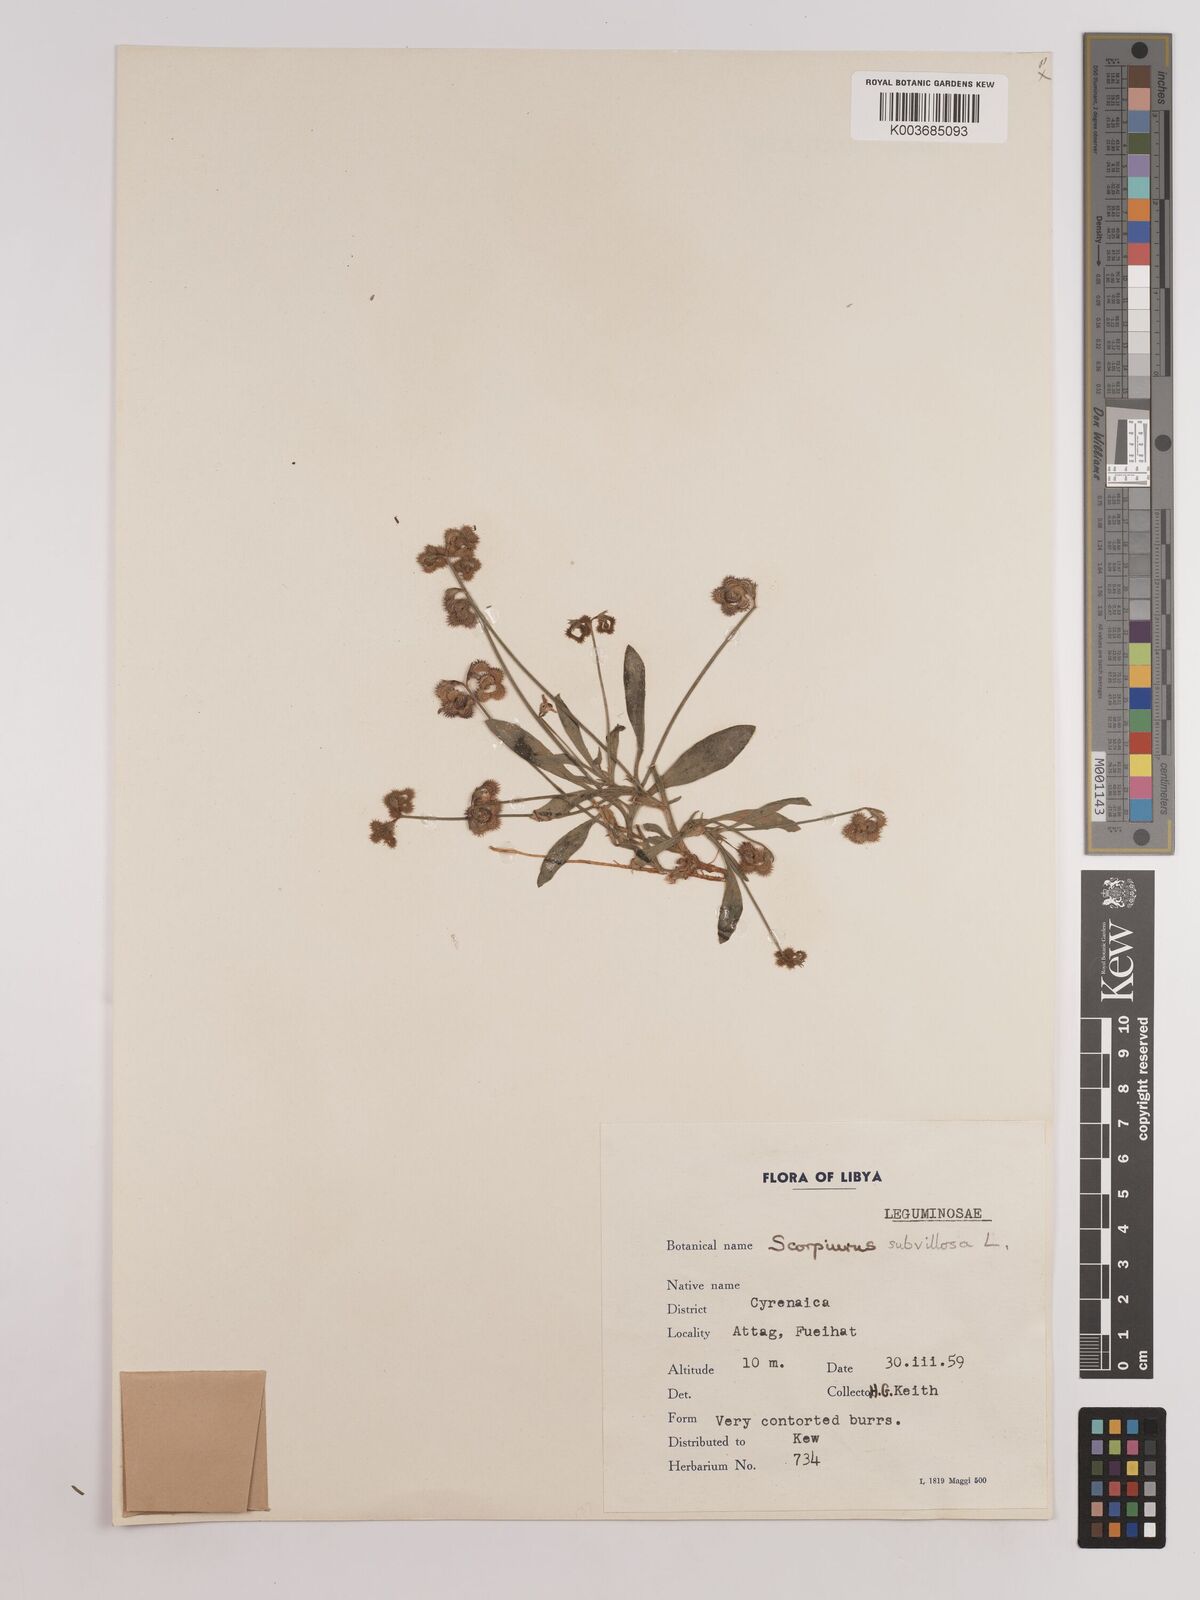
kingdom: Plantae
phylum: Tracheophyta
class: Magnoliopsida
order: Fabales
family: Fabaceae
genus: Scorpiurus
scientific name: Scorpiurus muricatus
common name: Caterpillar-plant
